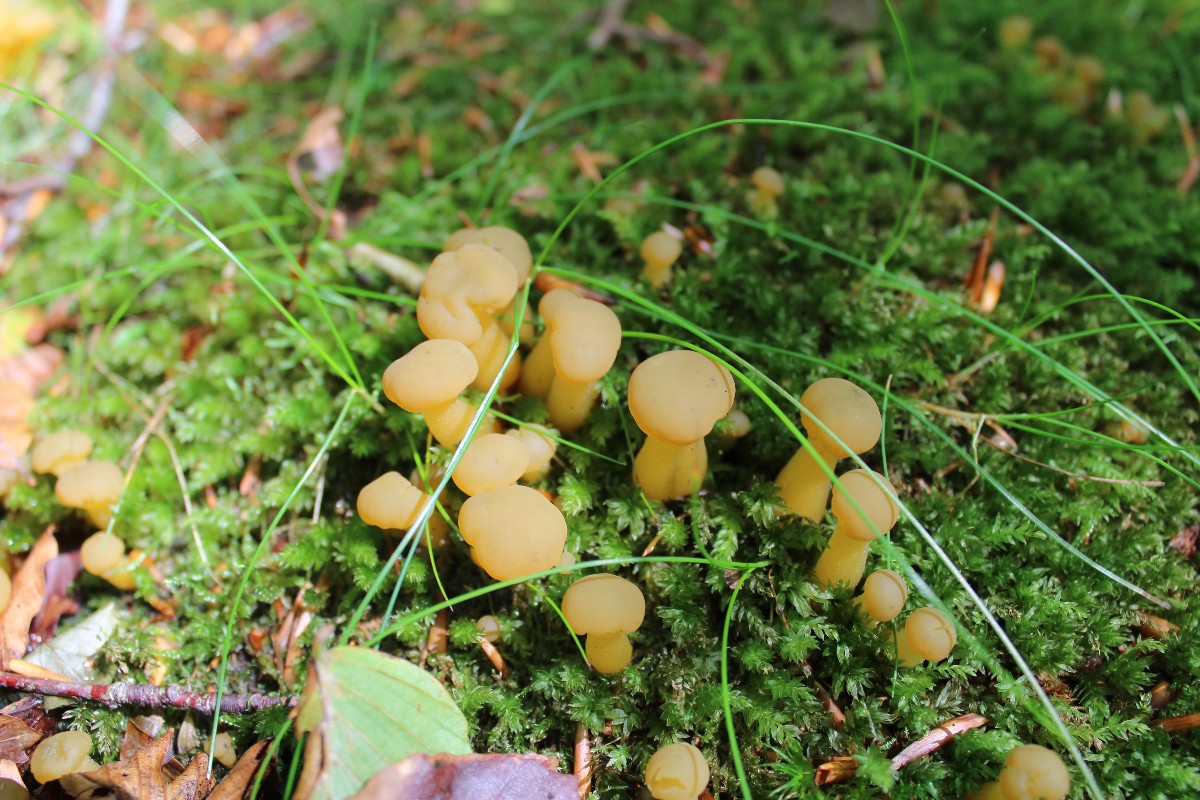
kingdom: Fungi
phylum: Ascomycota
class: Leotiomycetes
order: Leotiales
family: Leotiaceae
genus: Leotia
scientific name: Leotia lubrica
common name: ravsvamp
